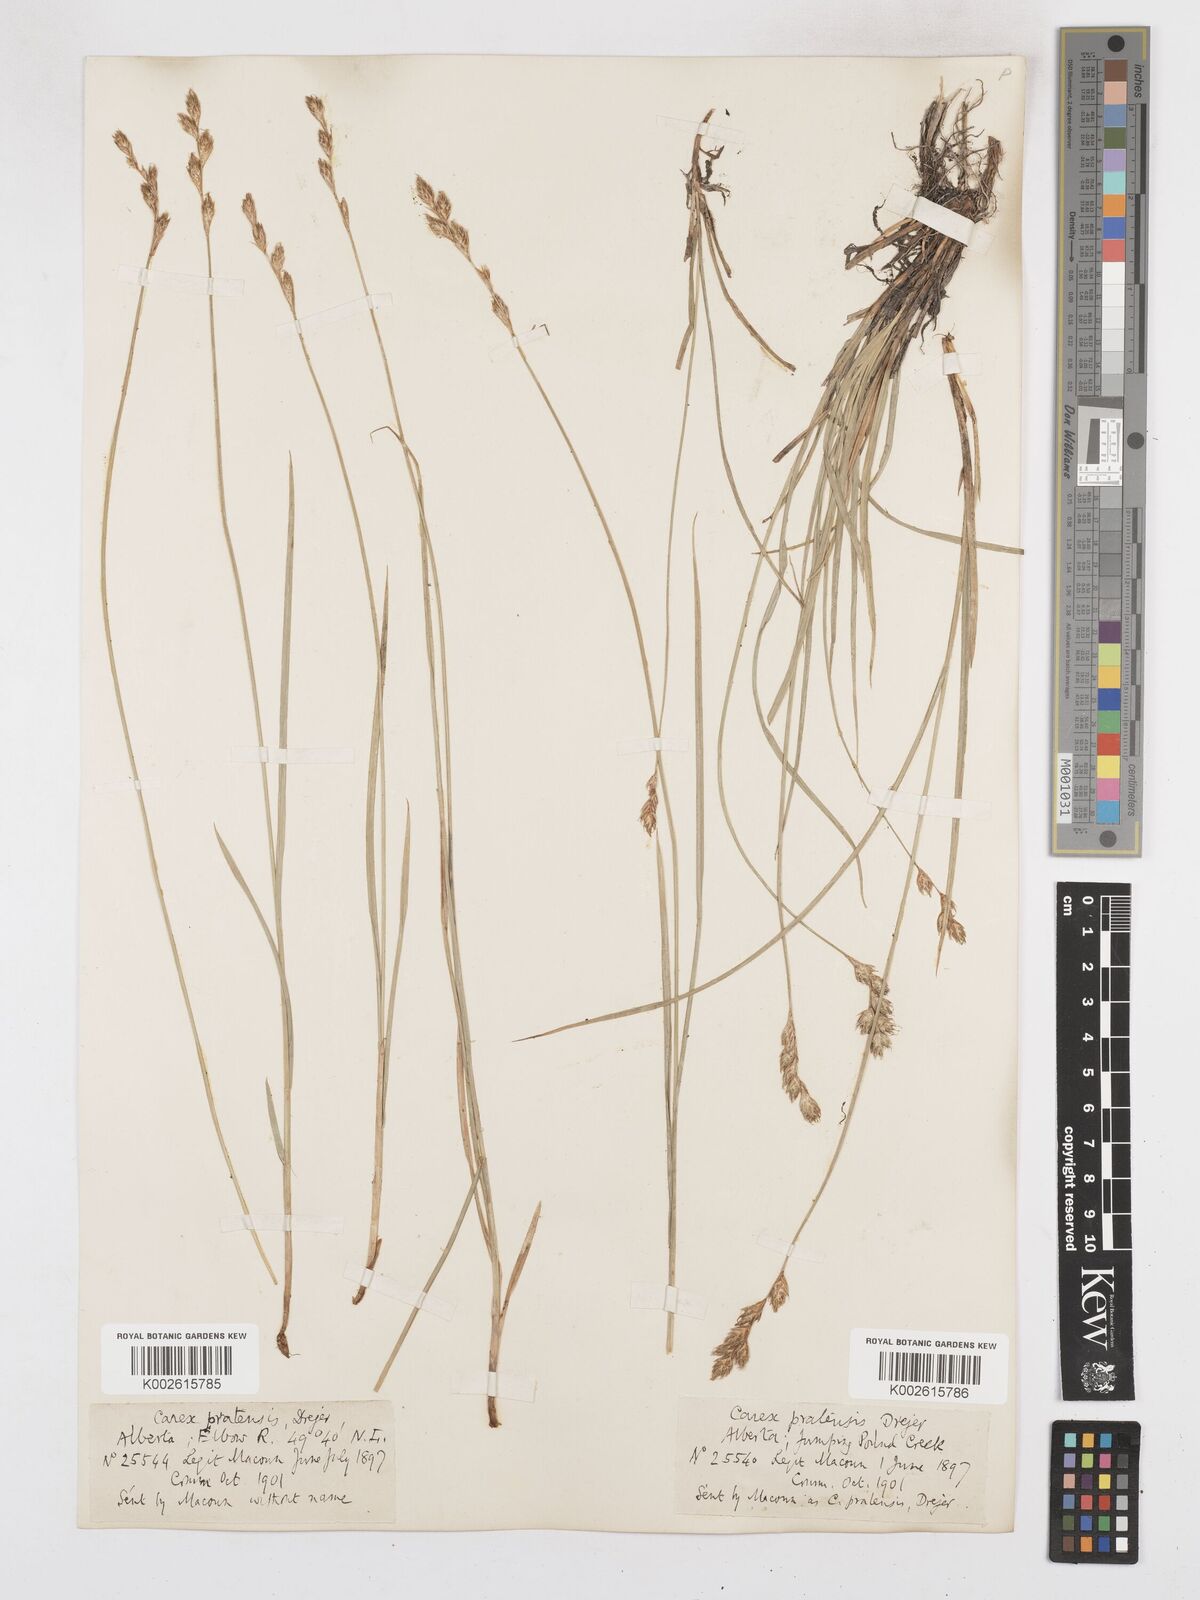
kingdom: Plantae
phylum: Tracheophyta
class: Liliopsida
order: Poales
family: Cyperaceae
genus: Carex
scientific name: Carex praticola
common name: Large-fruited oval sedge
